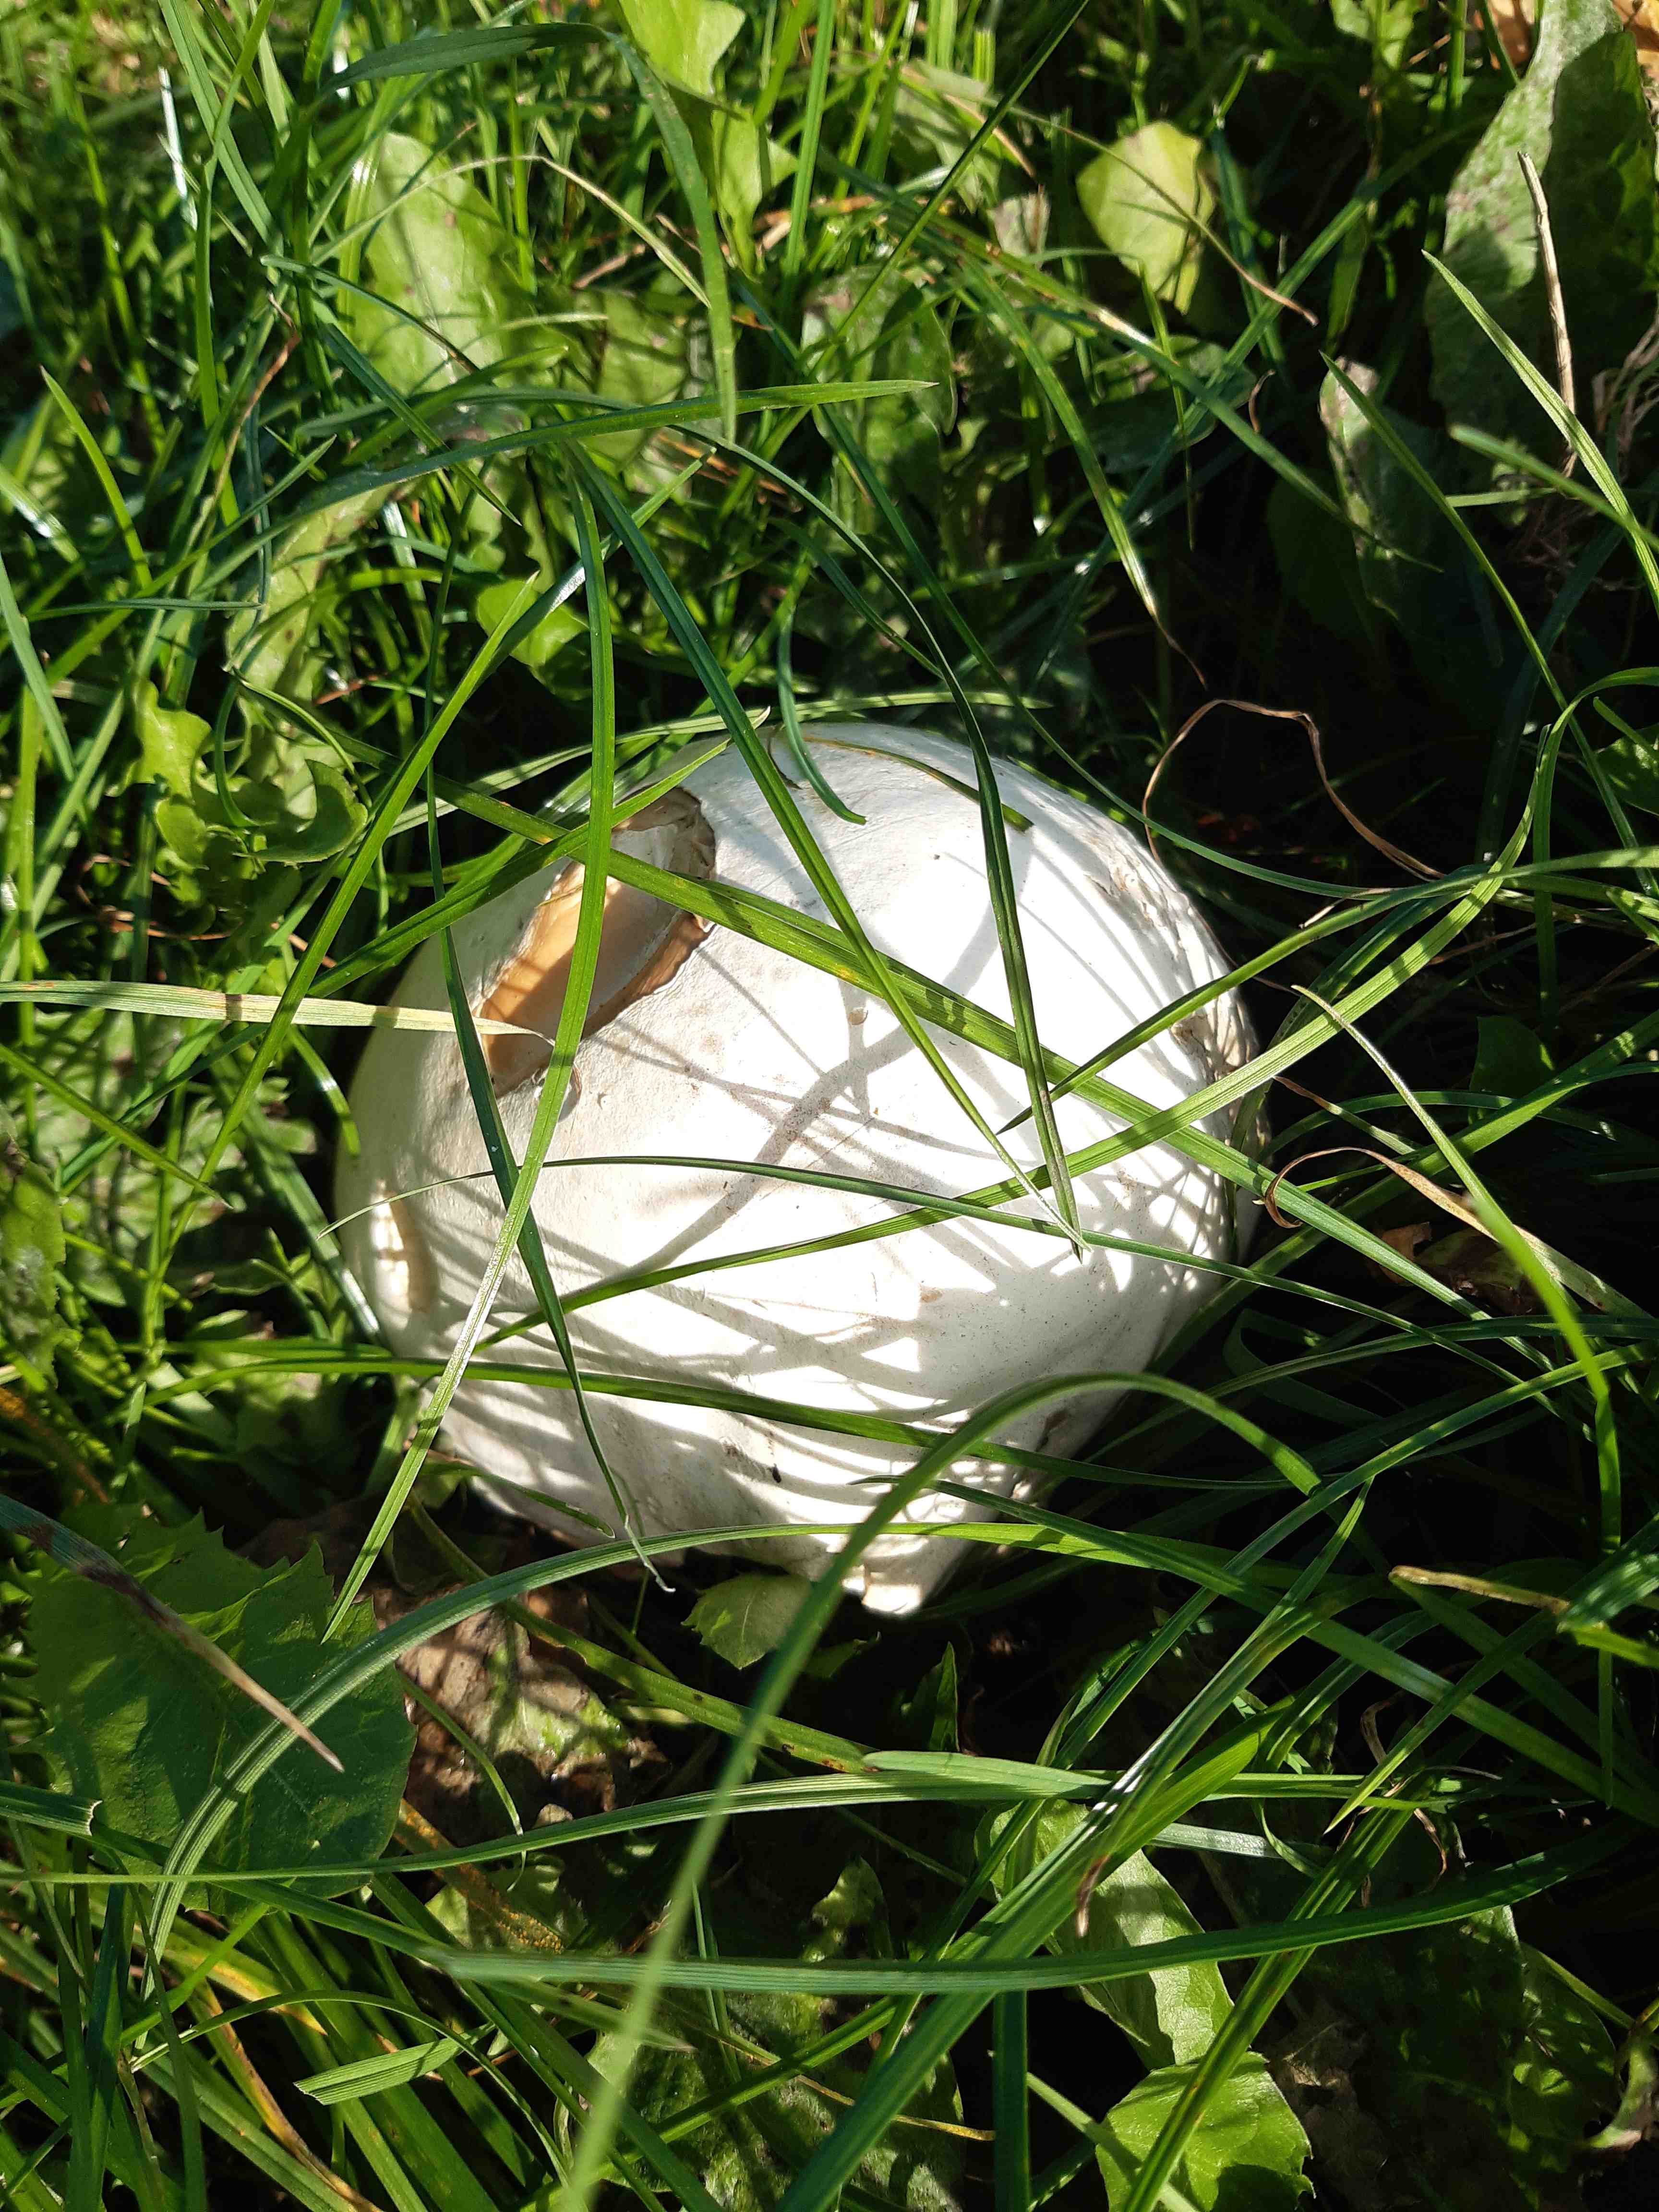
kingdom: Fungi
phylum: Basidiomycota
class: Agaricomycetes
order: Agaricales
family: Lycoperdaceae
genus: Calvatia
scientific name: Calvatia gigantea
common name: kæmpestøvbold
